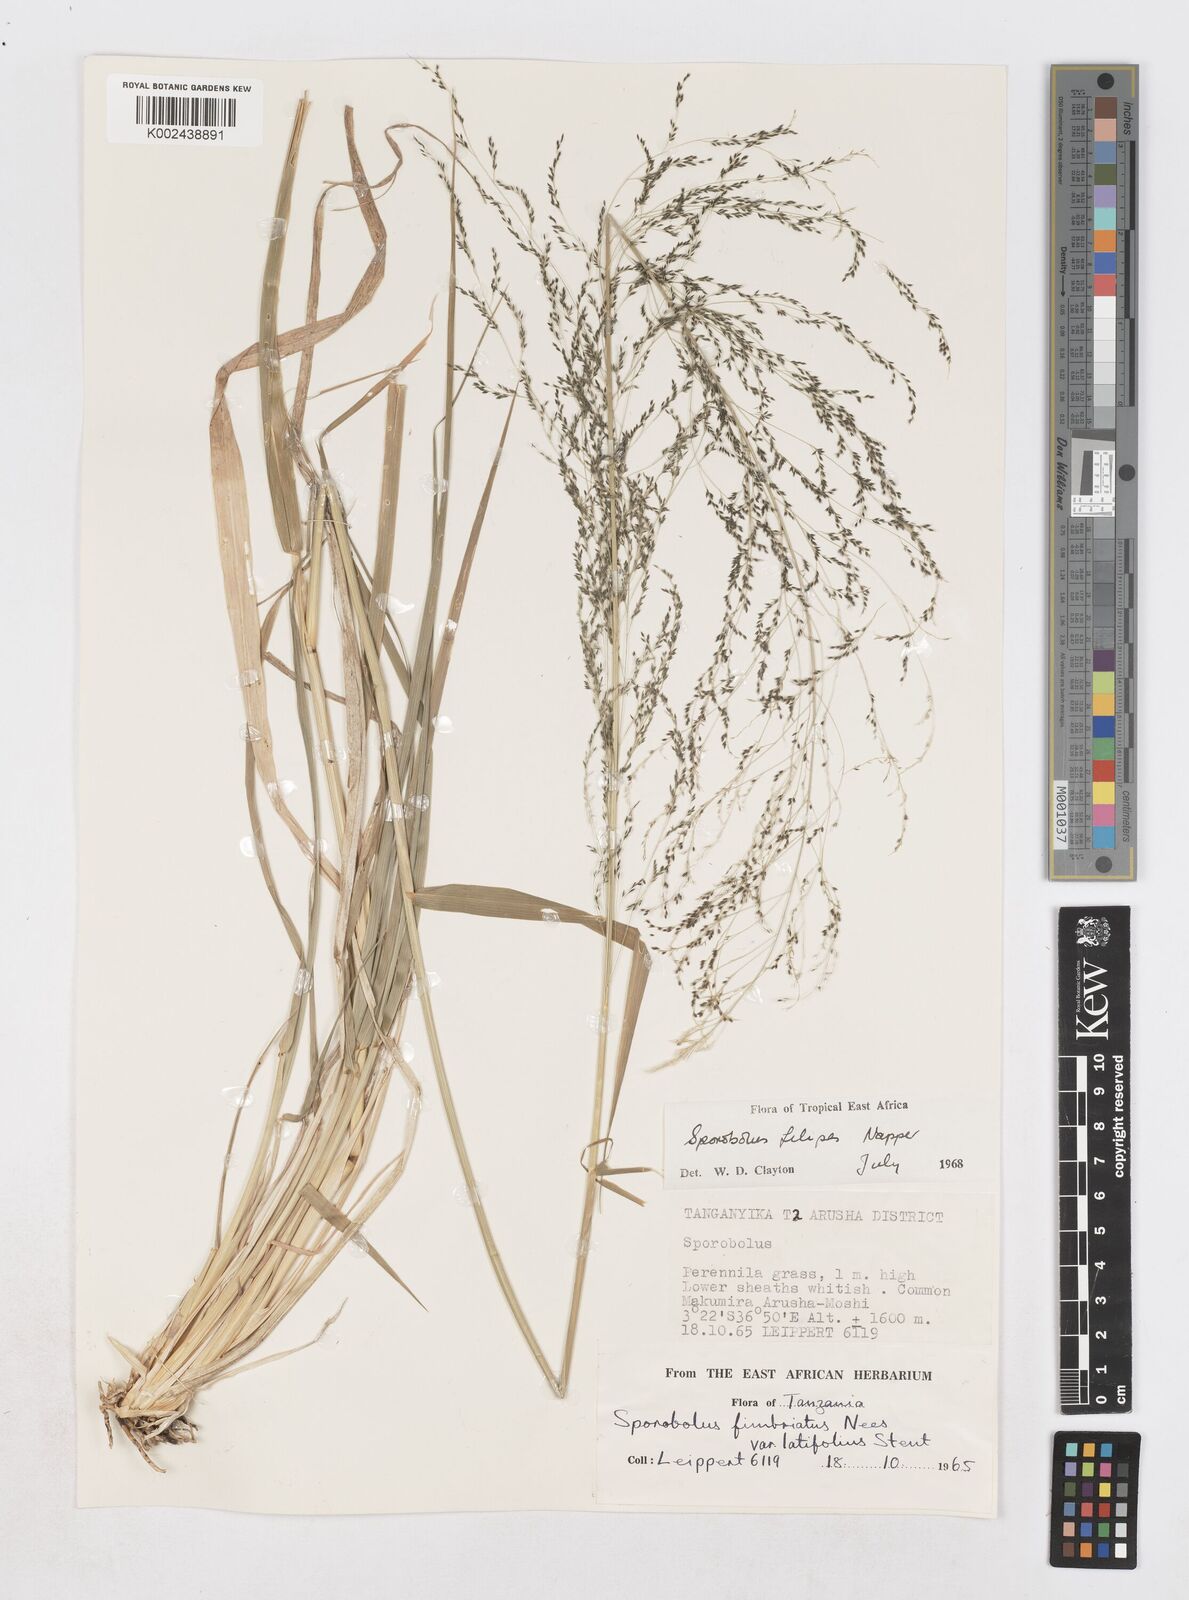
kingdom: Plantae
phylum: Tracheophyta
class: Liliopsida
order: Poales
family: Poaceae
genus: Sporobolus
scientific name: Sporobolus agrostoides
